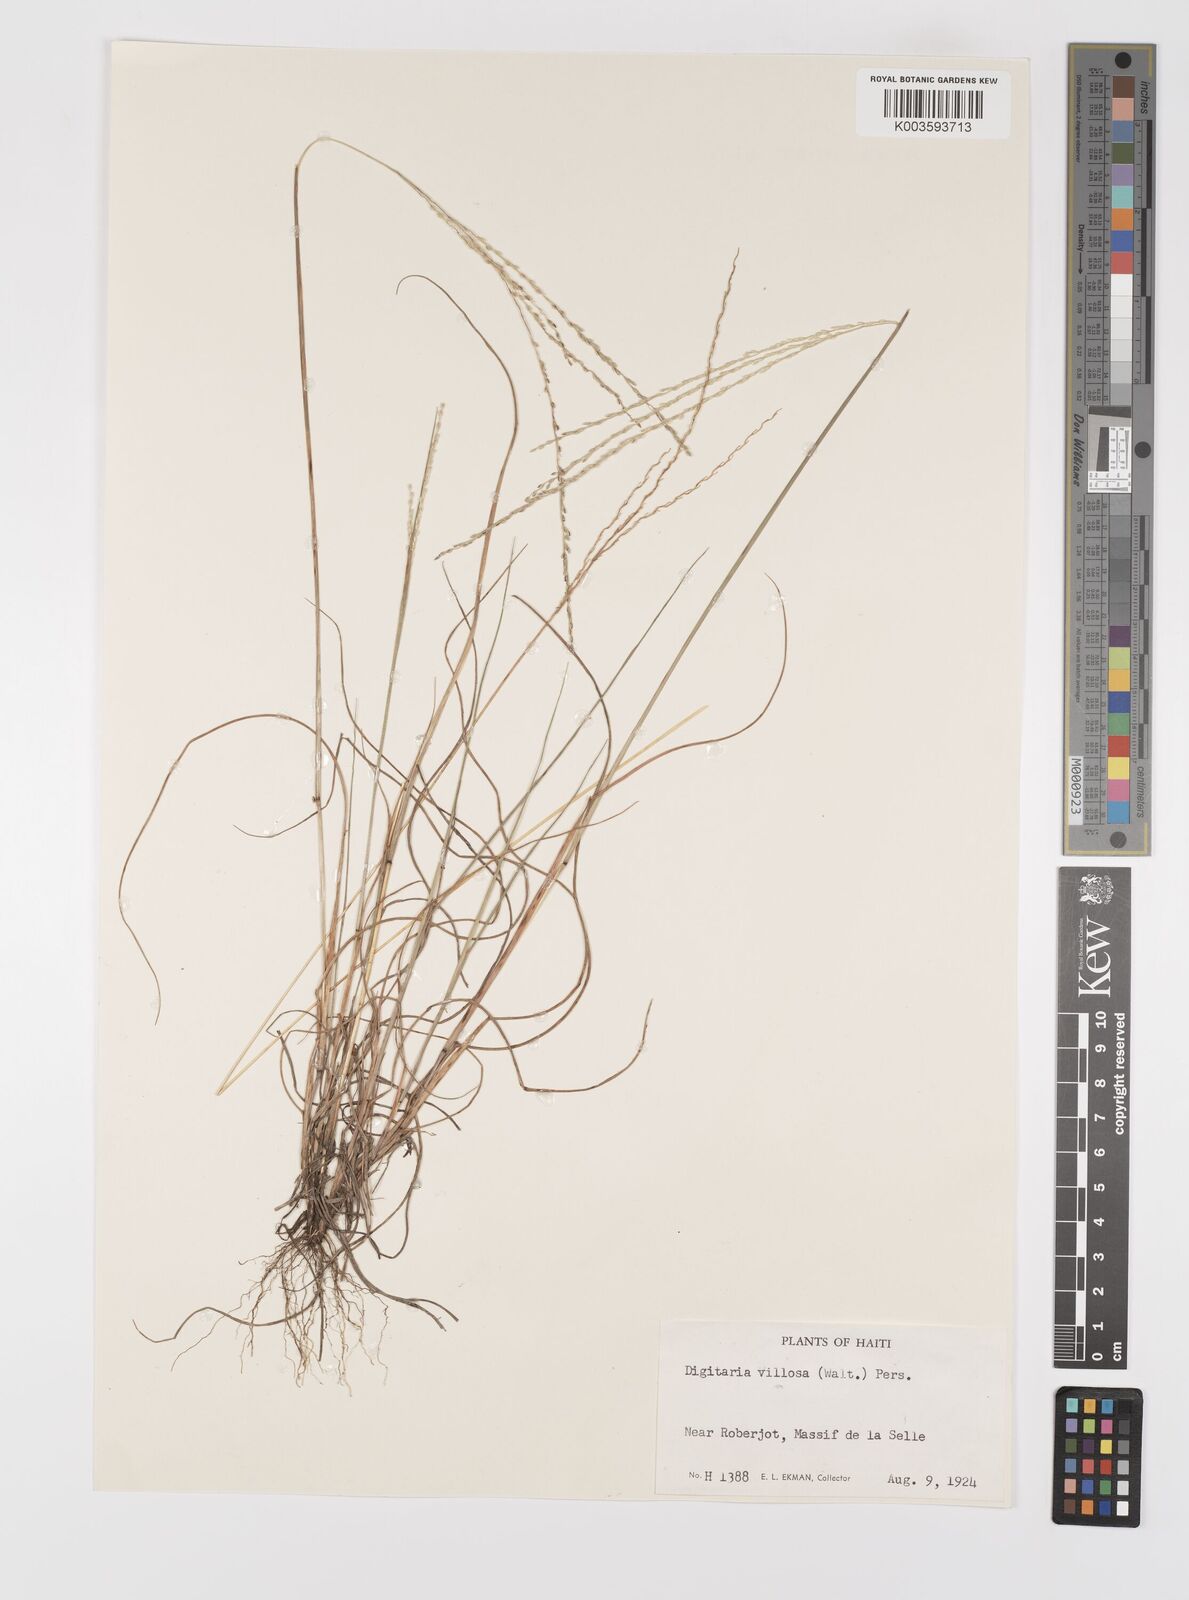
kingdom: Plantae
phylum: Tracheophyta
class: Liliopsida
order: Poales
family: Poaceae
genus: Digitaria
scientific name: Digitaria villosa
